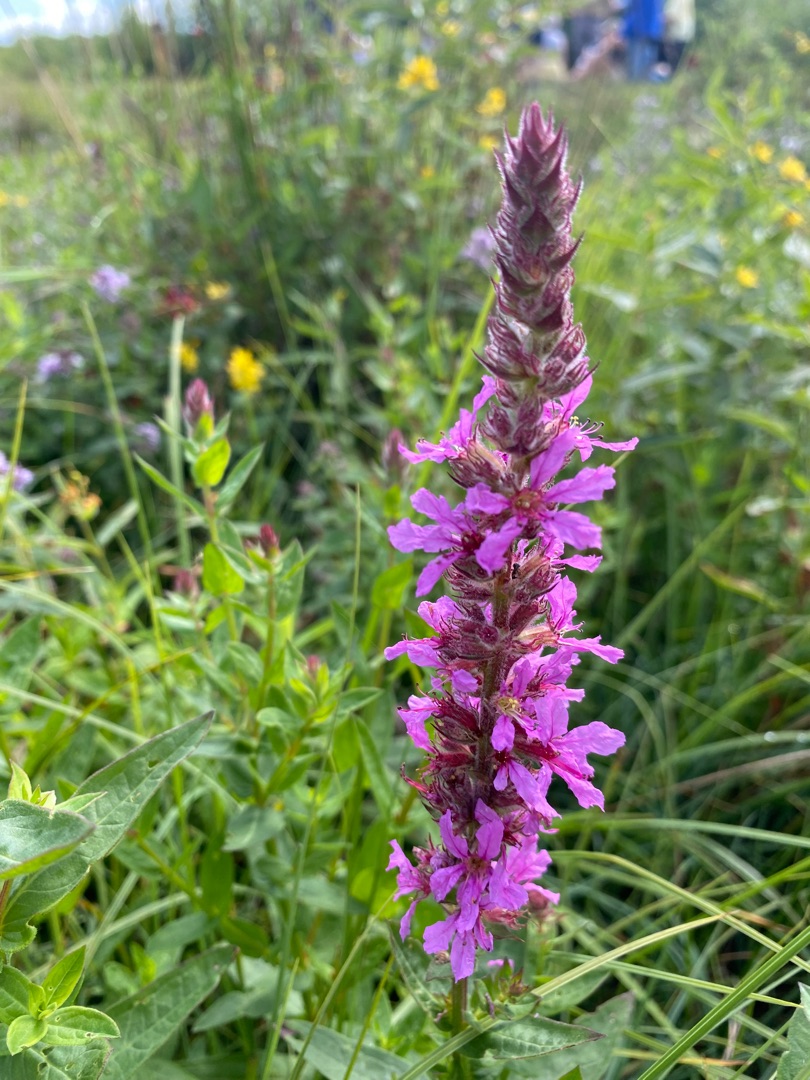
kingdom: Plantae
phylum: Tracheophyta
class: Magnoliopsida
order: Myrtales
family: Lythraceae
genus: Lythrum
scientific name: Lythrum salicaria
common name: Kattehale
